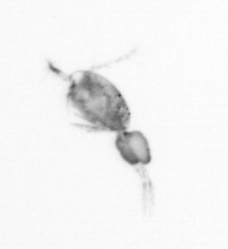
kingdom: Animalia
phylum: Arthropoda
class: Copepoda
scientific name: Copepoda
